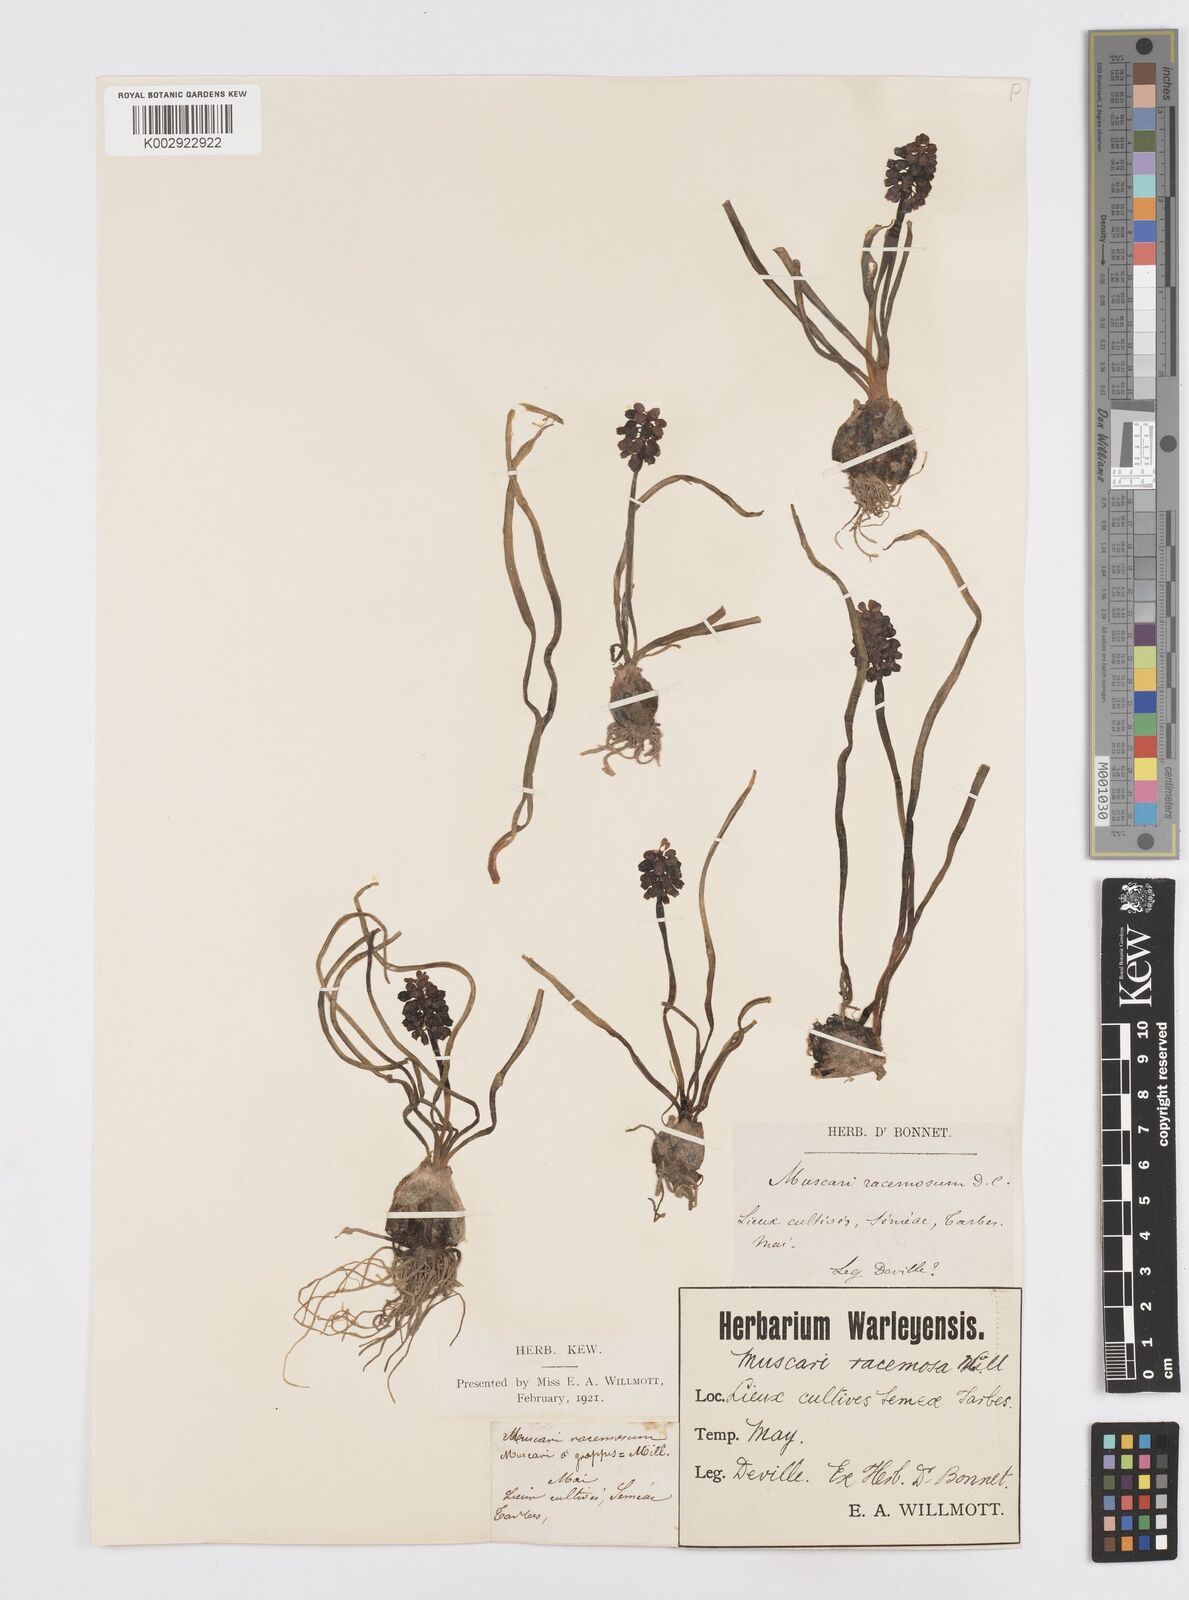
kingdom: Plantae
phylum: Tracheophyta
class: Liliopsida
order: Asparagales
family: Asparagaceae
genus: Muscarimia
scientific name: Muscarimia muscari
